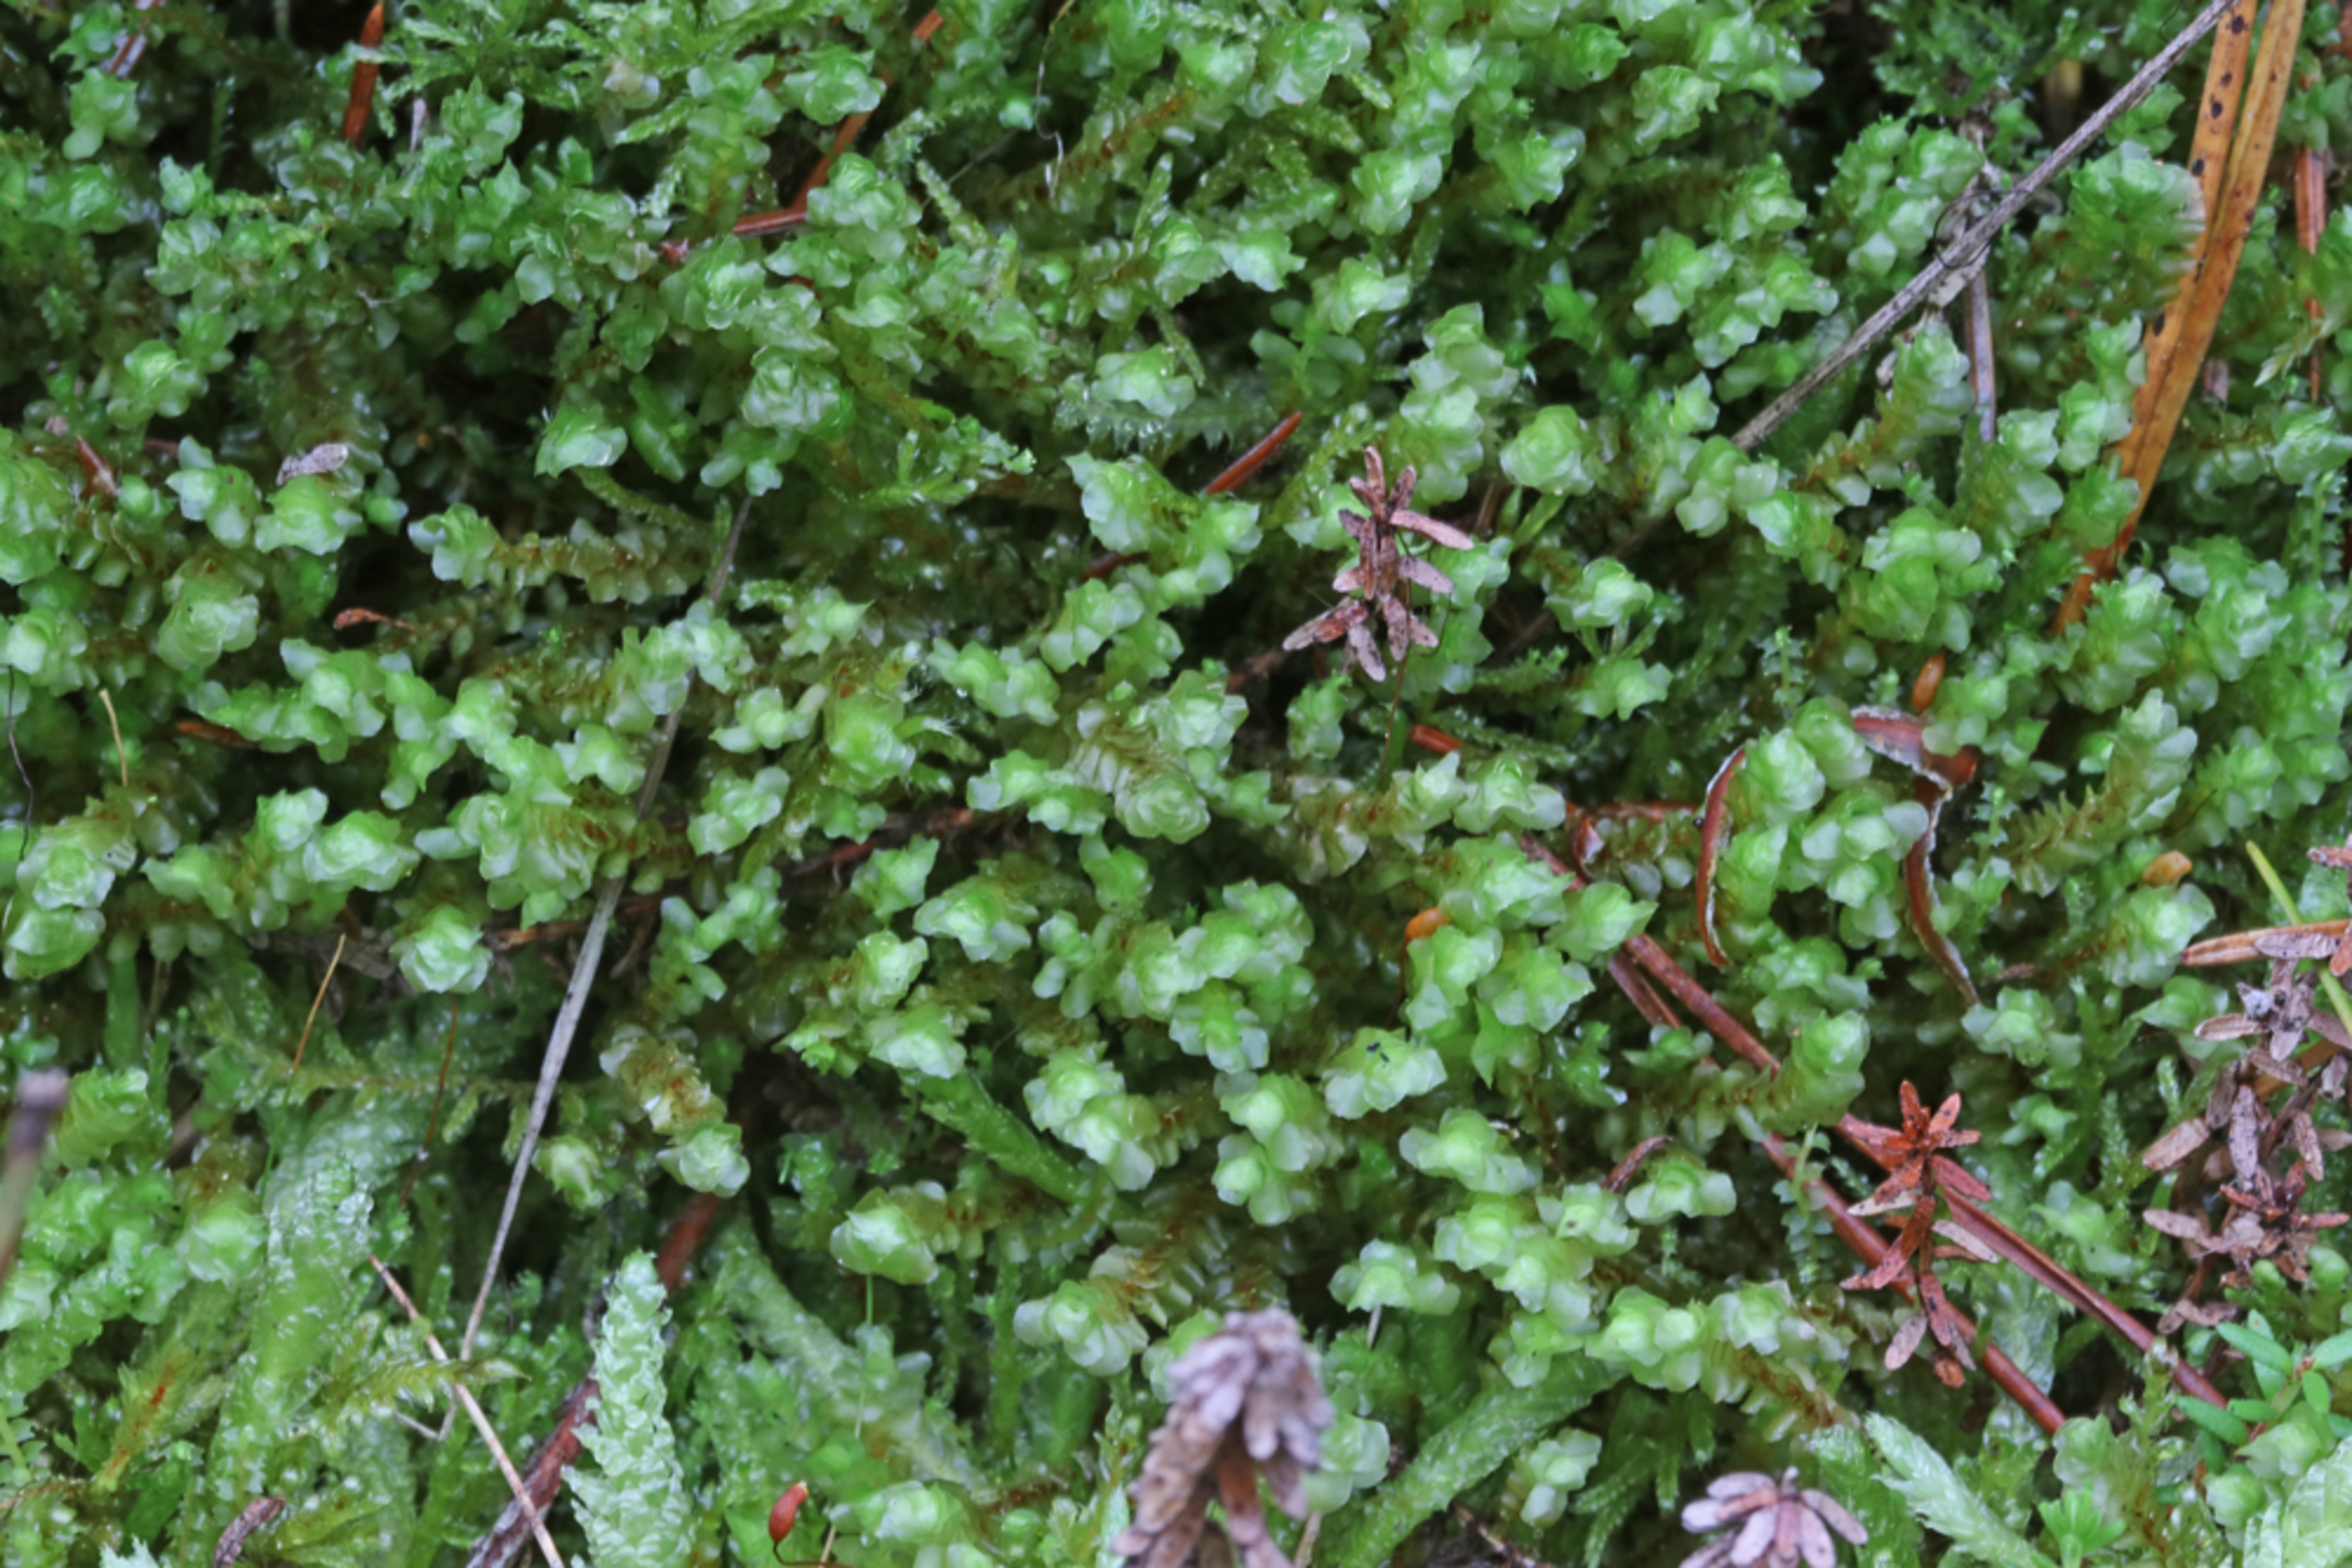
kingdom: Plantae
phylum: Marchantiophyta
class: Jungermanniopsida
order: Jungermanniales
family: Scapaniaceae
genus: Scapania
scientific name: Scapania gracilis
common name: Gulbrun tveblad
